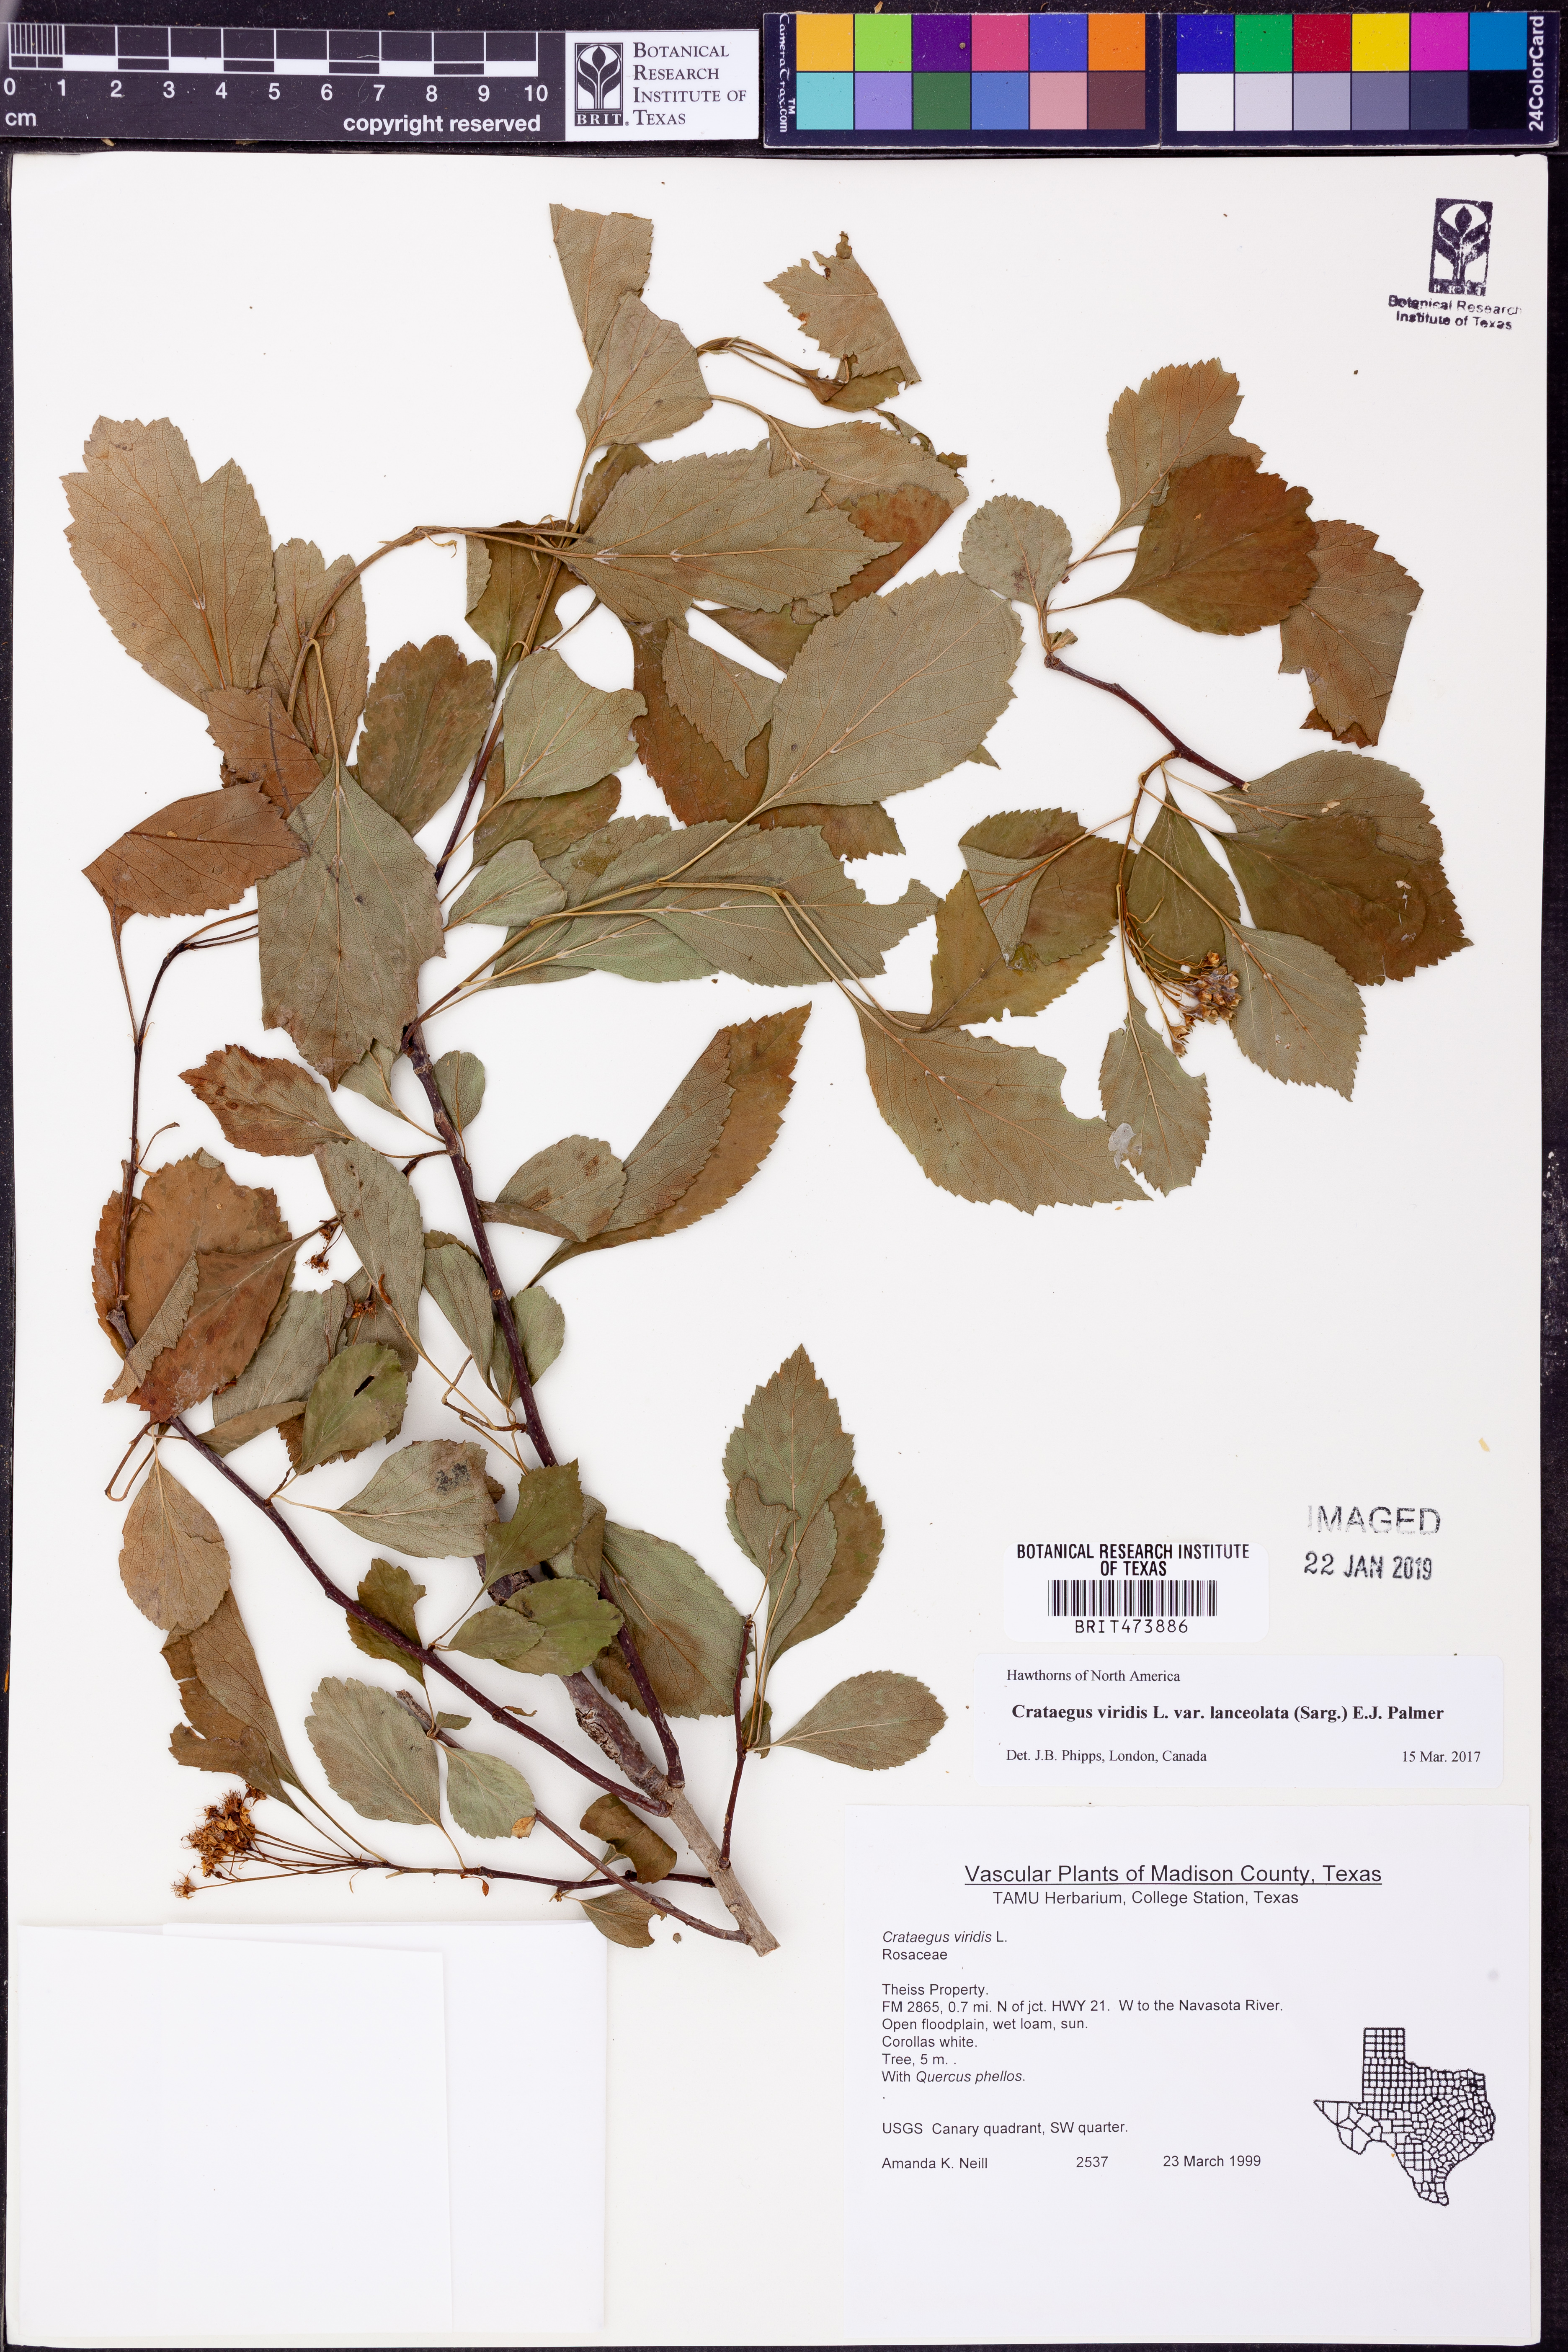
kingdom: Plantae
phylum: Tracheophyta
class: Magnoliopsida
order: Rosales
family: Rosaceae
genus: Crataegus
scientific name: Crataegus viridis
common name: Southernthorn
